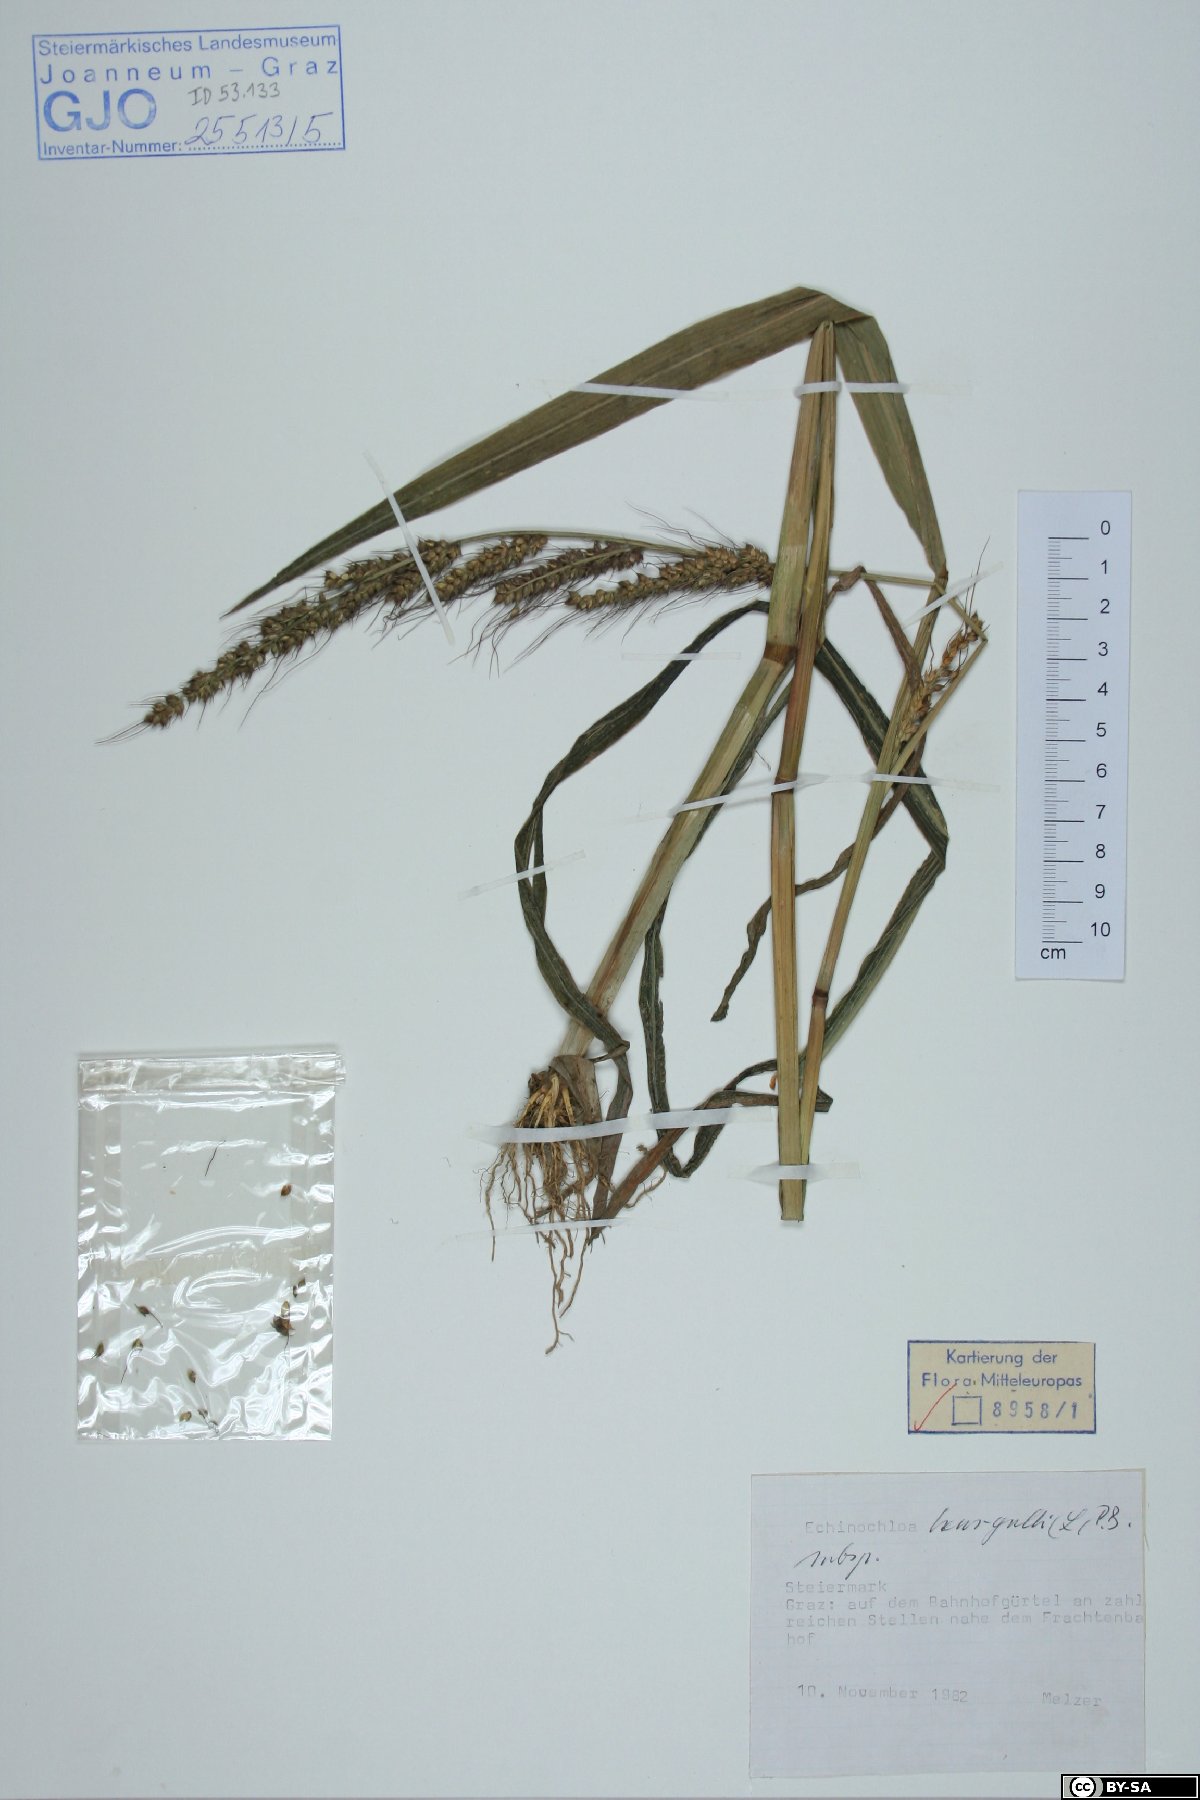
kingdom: Plantae
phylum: Tracheophyta
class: Liliopsida
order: Poales
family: Poaceae
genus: Echinochloa
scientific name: Echinochloa crus-galli
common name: Cockspur
